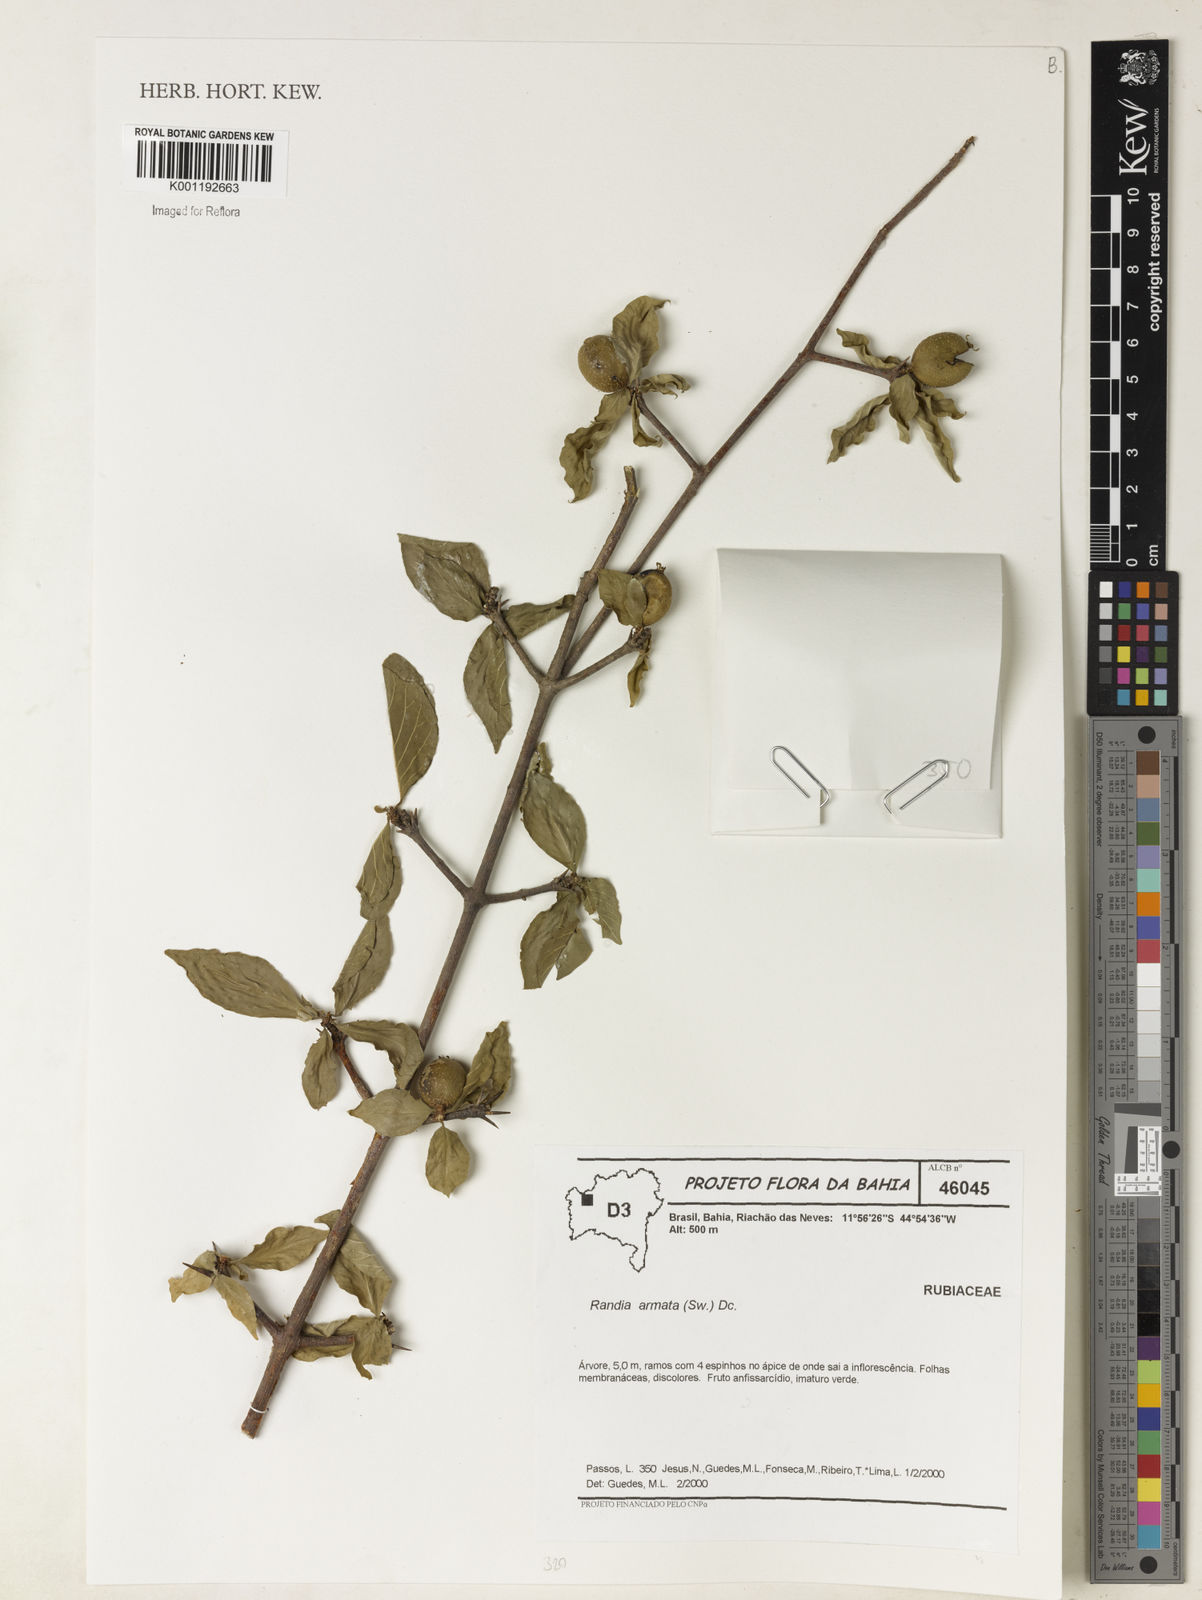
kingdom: Plantae
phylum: Tracheophyta
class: Magnoliopsida
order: Gentianales
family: Rubiaceae
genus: Randia
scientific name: Randia armata
